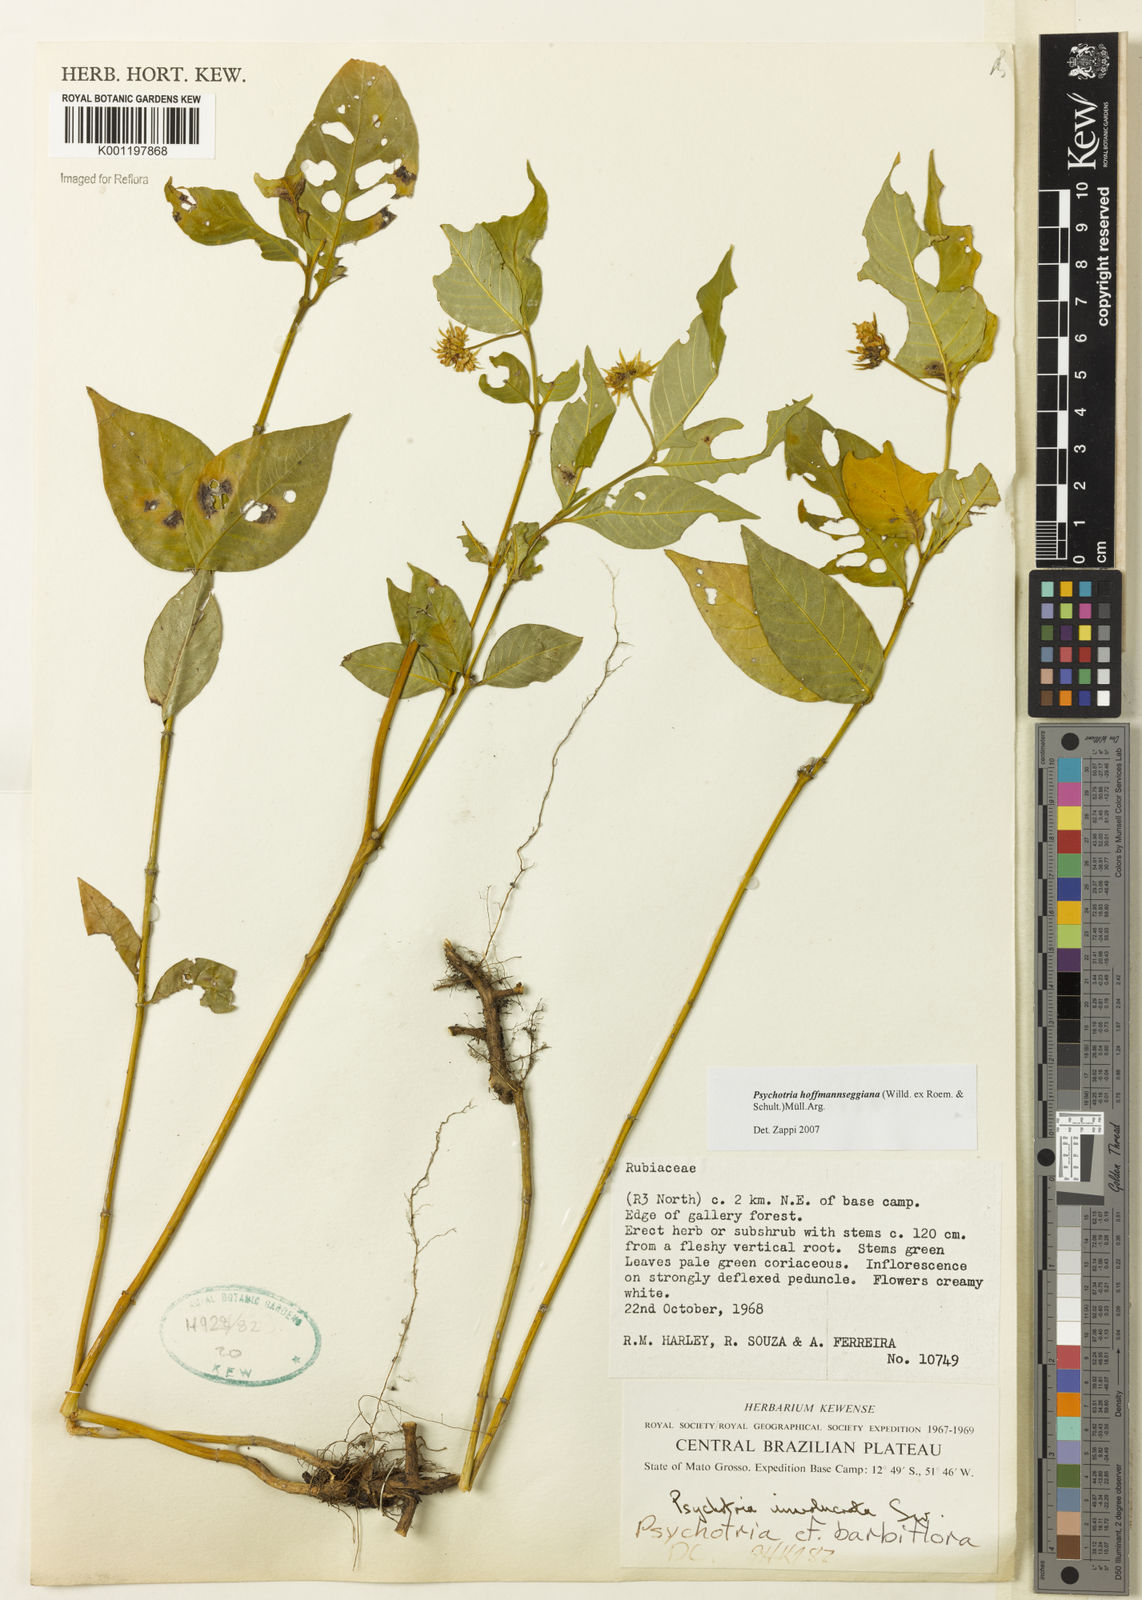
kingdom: Plantae
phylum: Tracheophyta
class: Magnoliopsida
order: Gentianales
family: Rubiaceae
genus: Psychotria
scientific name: Psychotria
